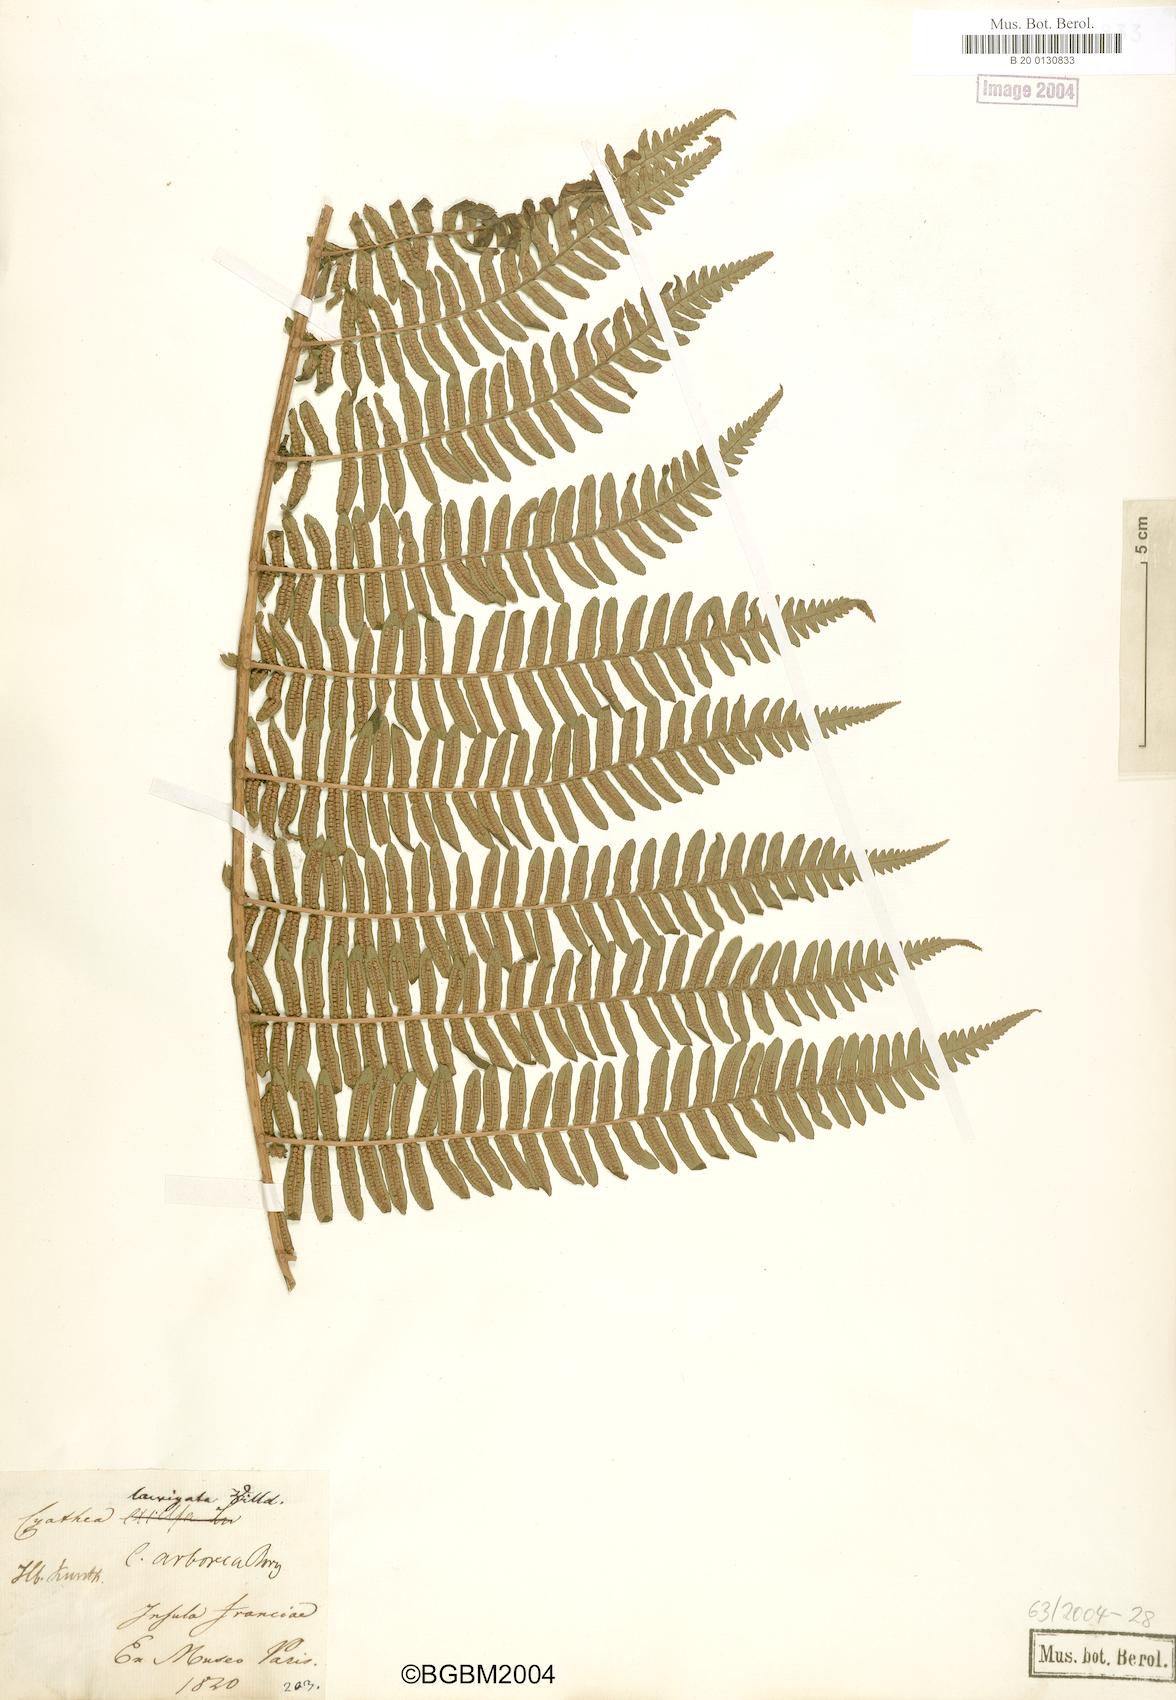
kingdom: Plantae
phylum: Tracheophyta
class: Polypodiopsida
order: Cyatheales
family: Cyatheaceae
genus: Alsophila
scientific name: Alsophila celsa
